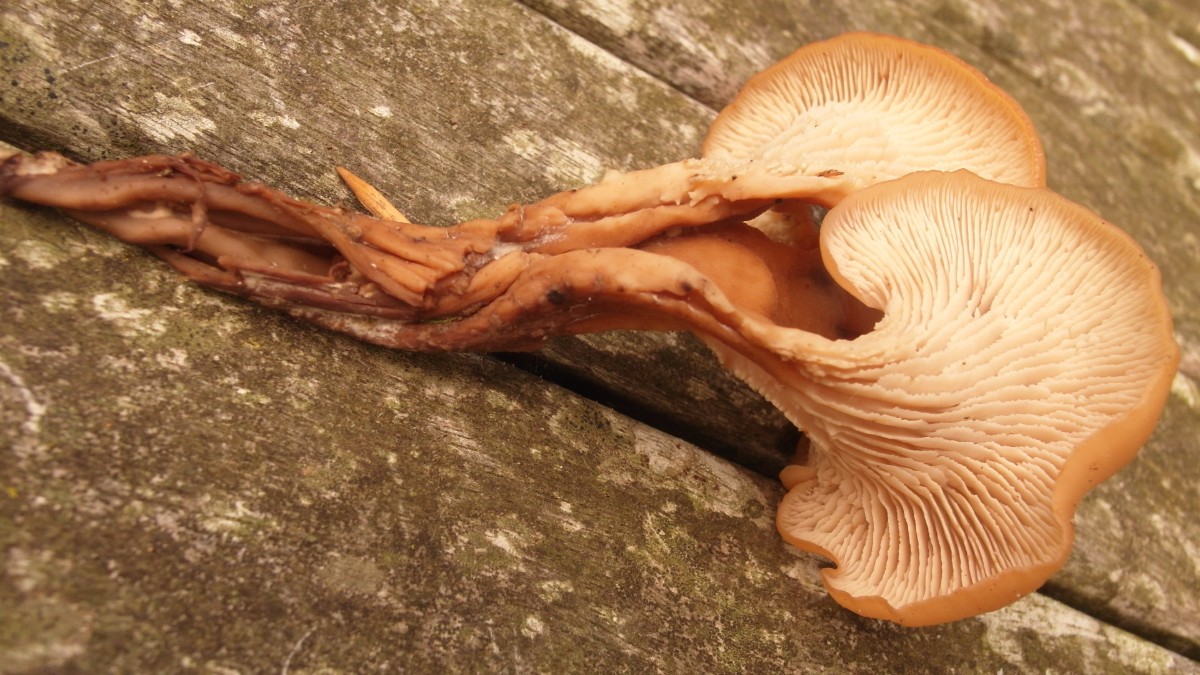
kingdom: Fungi
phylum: Basidiomycota
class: Agaricomycetes
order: Russulales
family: Auriscalpiaceae
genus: Lentinellus
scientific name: Lentinellus cochleatus
